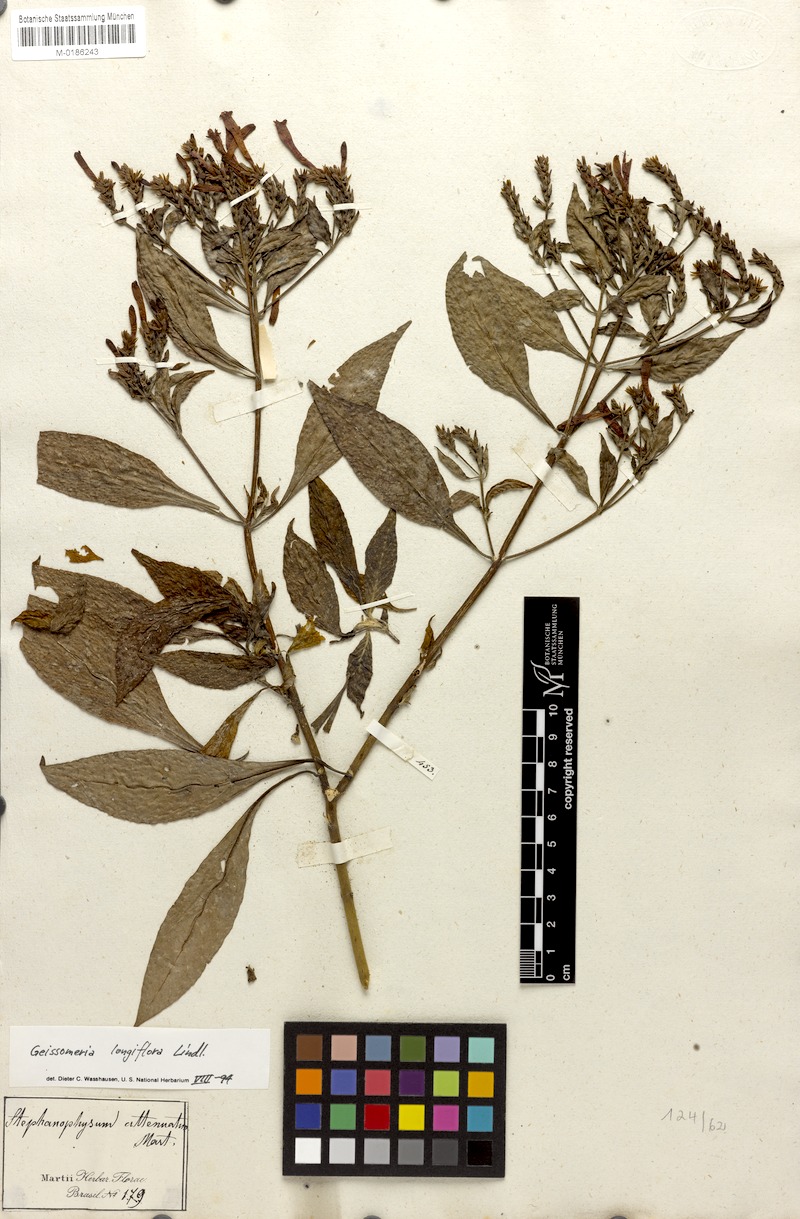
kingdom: Plantae
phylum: Tracheophyta
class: Magnoliopsida
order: Lamiales
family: Acanthaceae
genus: Aphelandra
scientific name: Aphelandra longiflora
